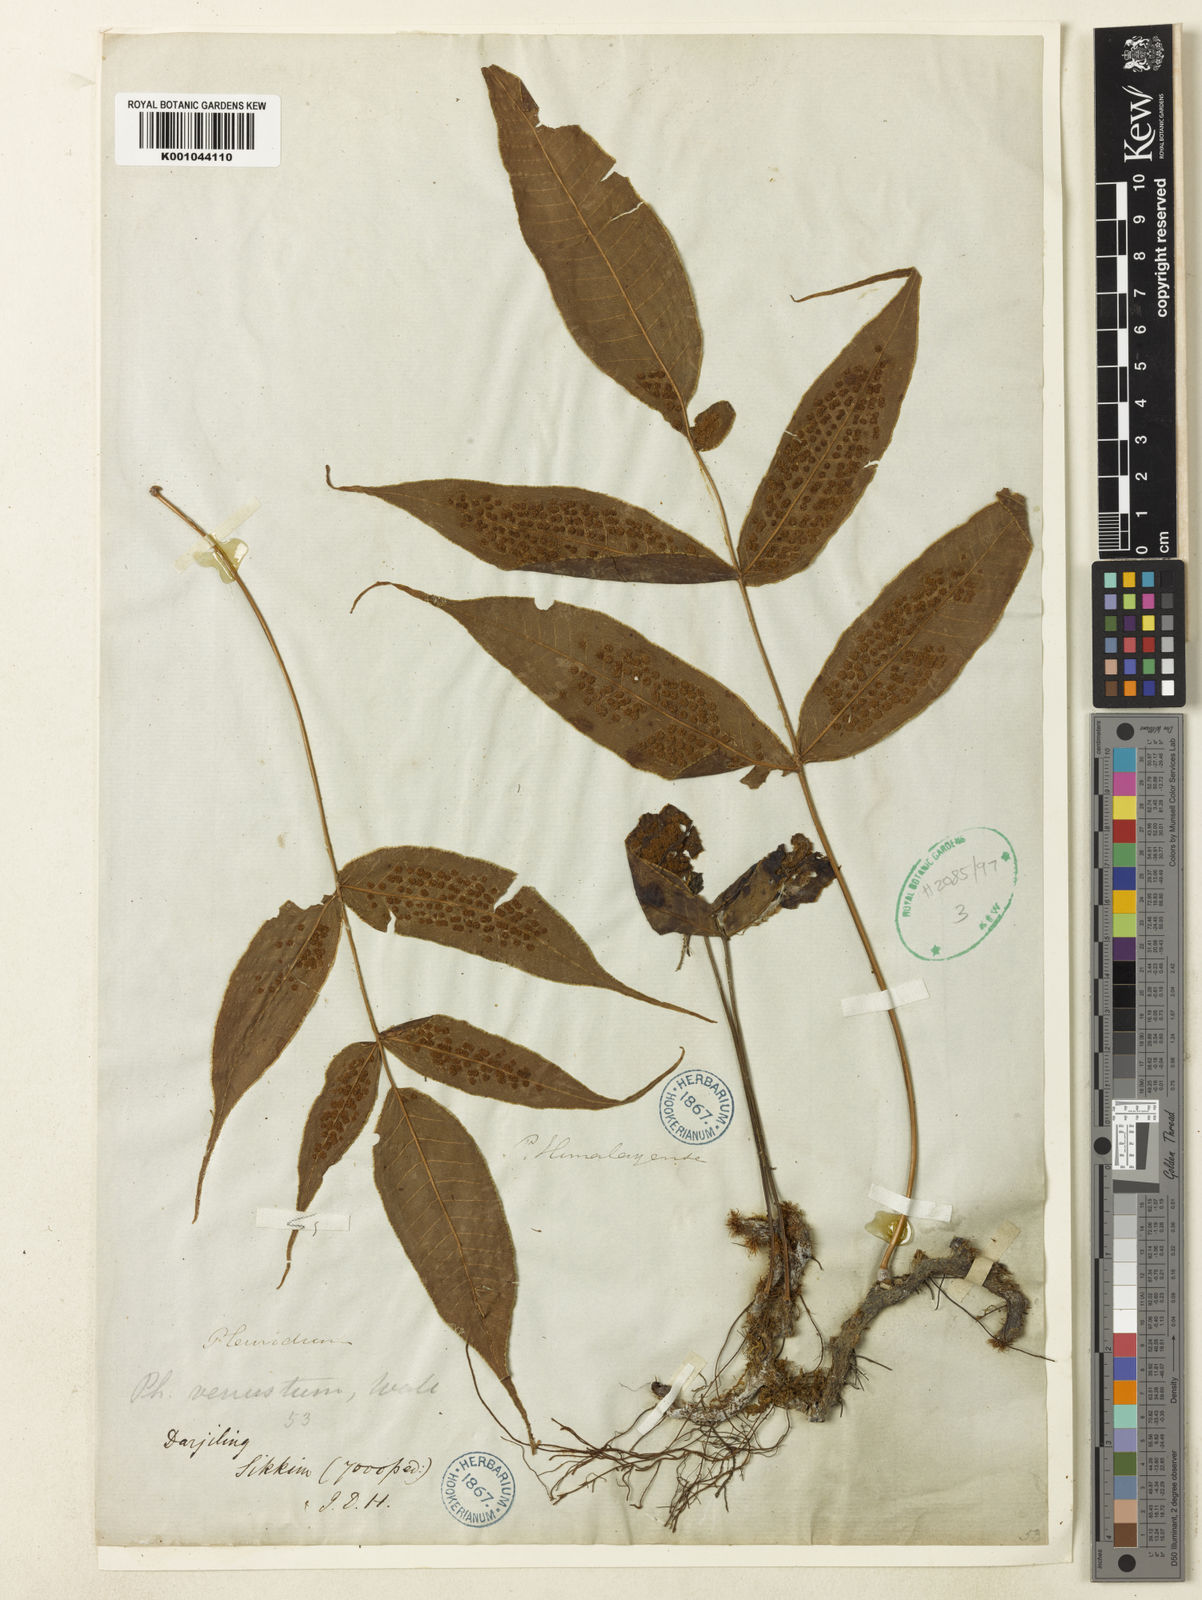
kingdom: Plantae
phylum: Tracheophyta
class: Polypodiopsida
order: Polypodiales
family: Polypodiaceae
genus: Selliguea
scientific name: Selliguea tomentosa
